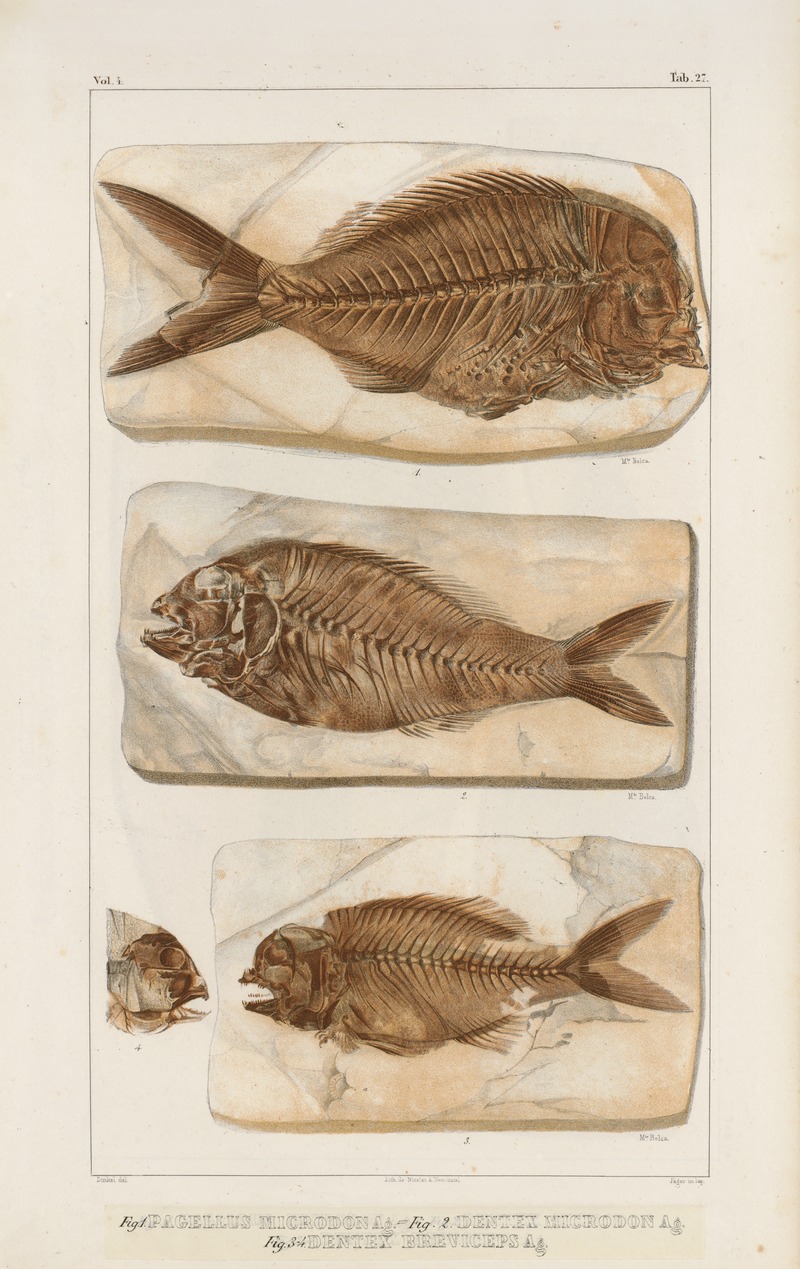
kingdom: Animalia
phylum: Chordata
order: Perciformes
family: Sparidae
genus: Dentex
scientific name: Dentex breviceps
